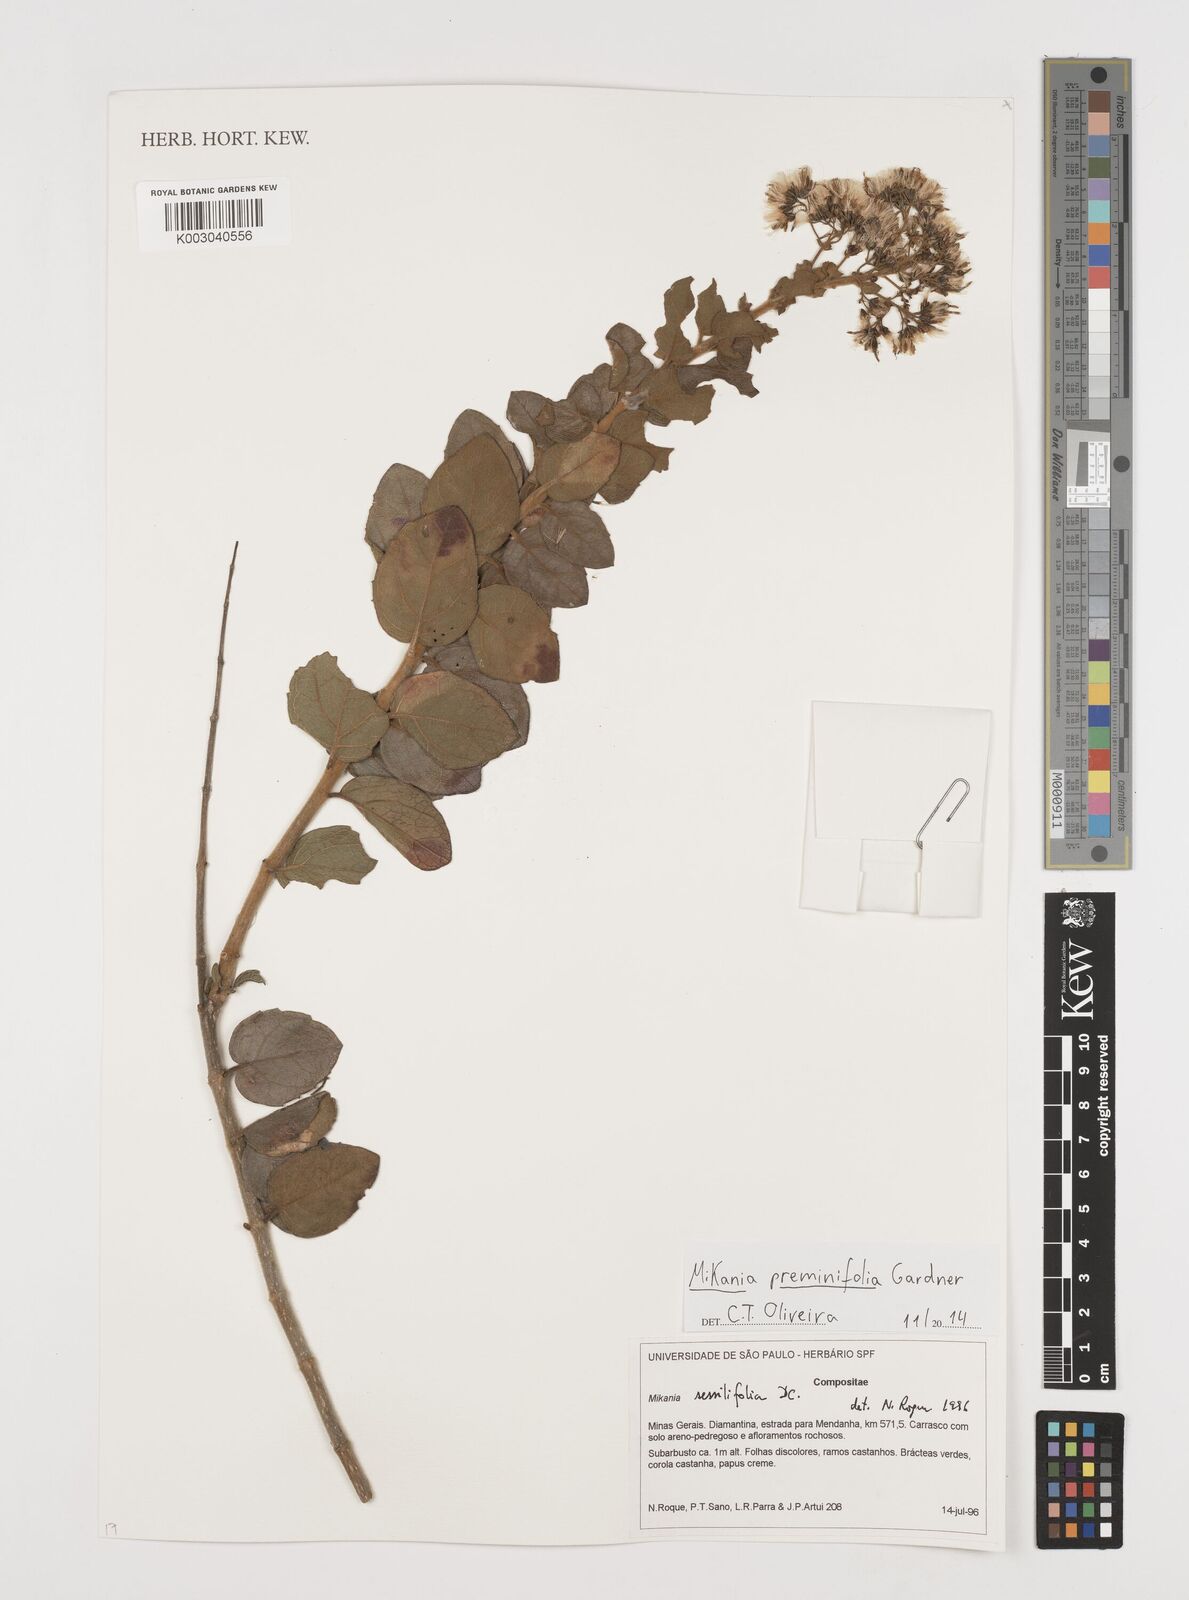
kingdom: Plantae
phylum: Tracheophyta
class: Magnoliopsida
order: Asterales
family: Asteraceae
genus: Mikania
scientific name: Mikania premnifolia
